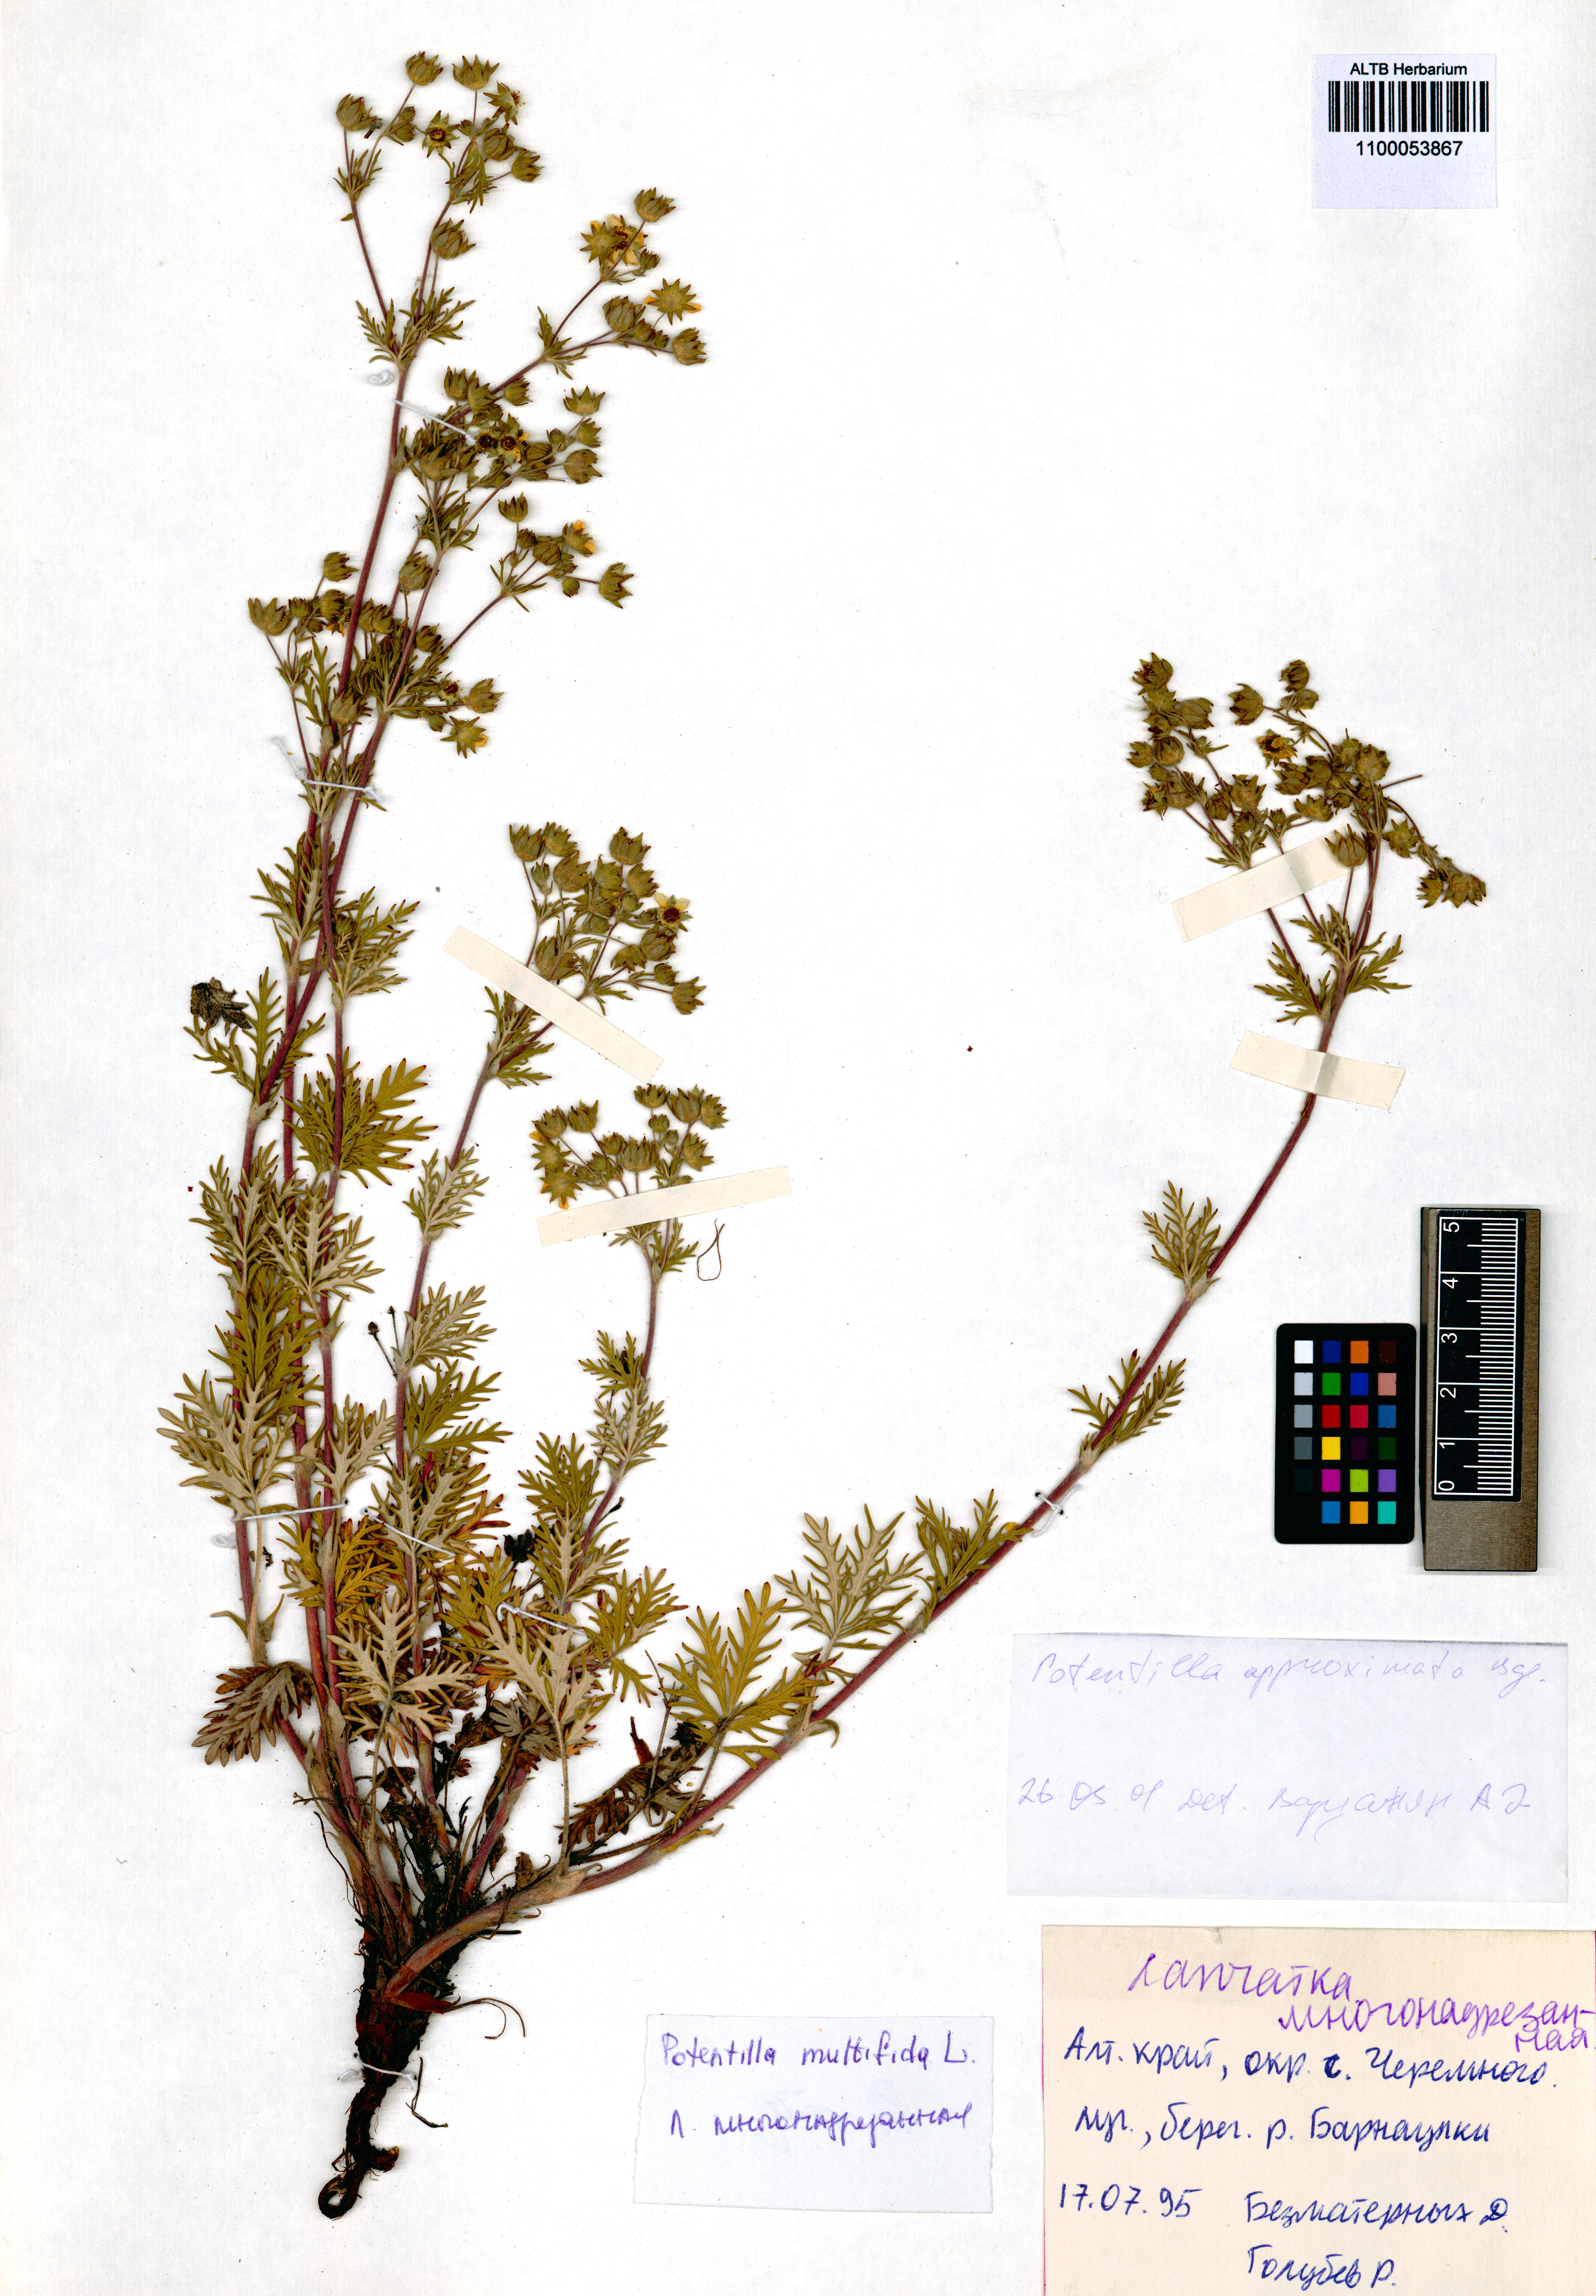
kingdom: Plantae
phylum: Tracheophyta
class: Magnoliopsida
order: Rosales
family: Rosaceae
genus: Potentilla
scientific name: Potentilla conferta
